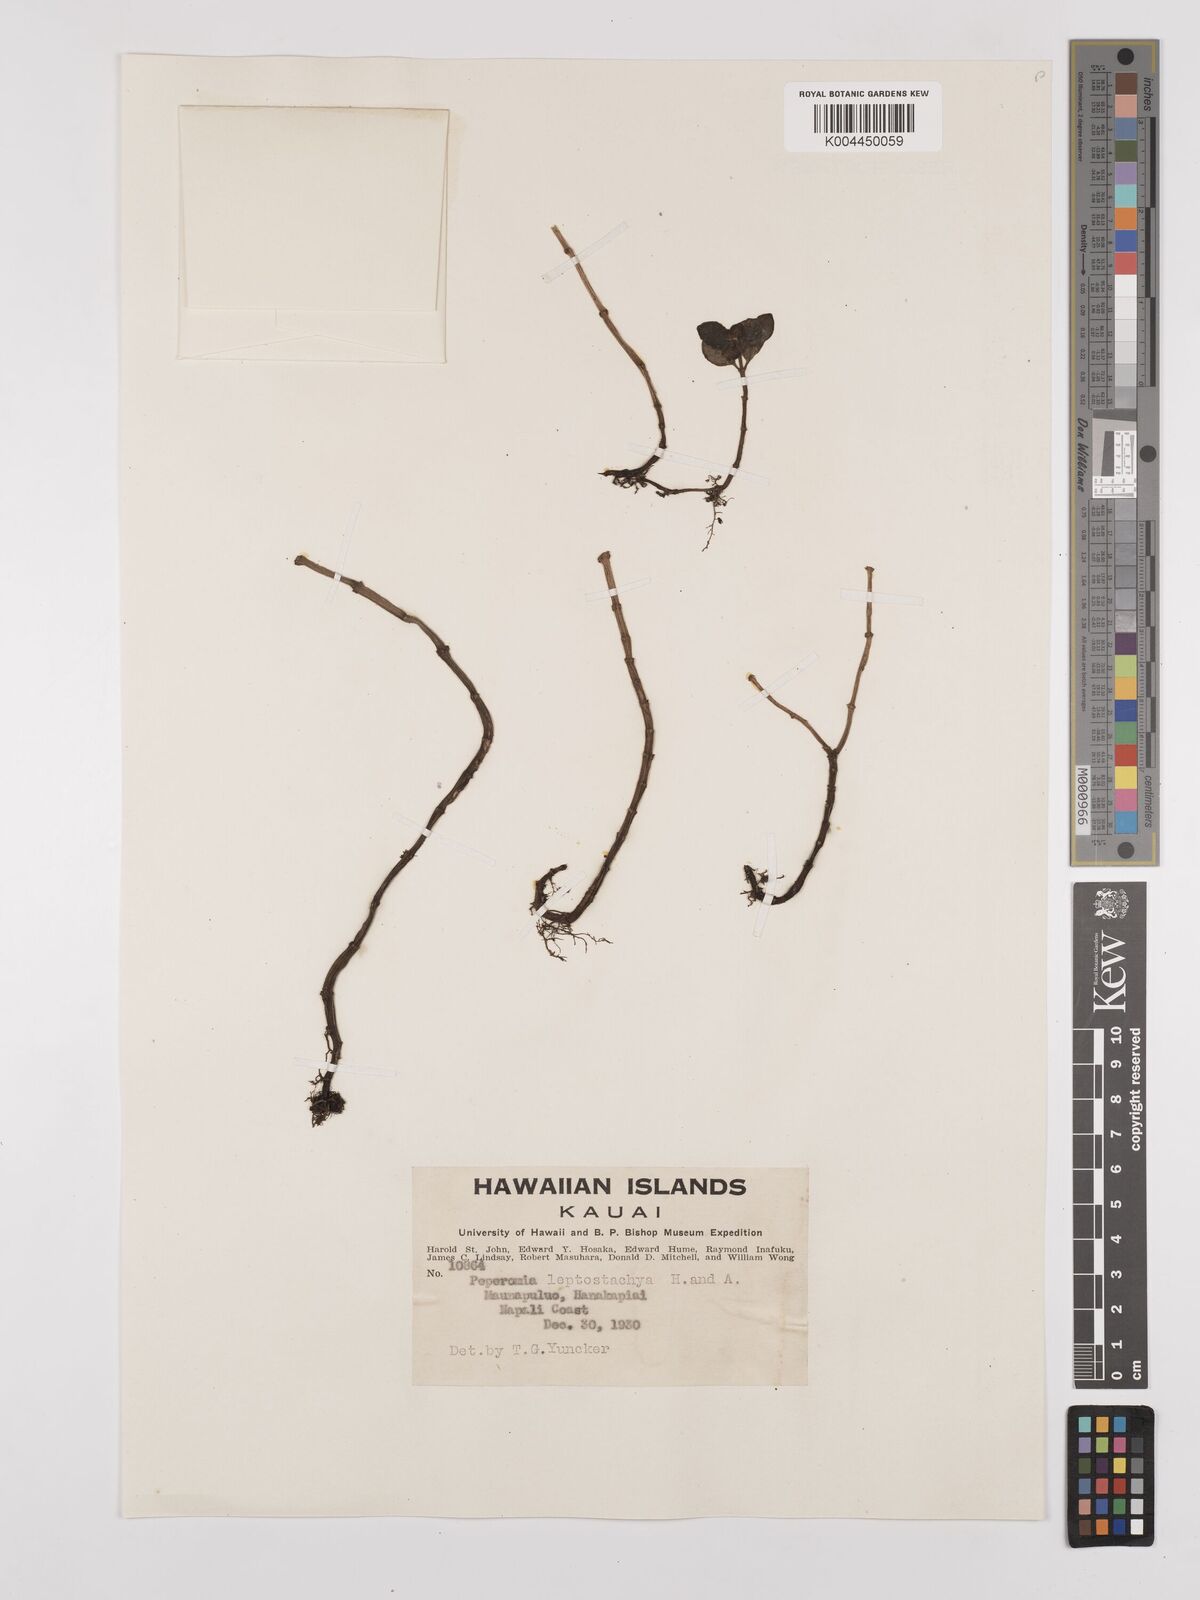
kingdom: Plantae
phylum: Tracheophyta
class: Magnoliopsida
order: Piperales
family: Piperaceae
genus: Peperomia
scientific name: Peperomia leptostachya
